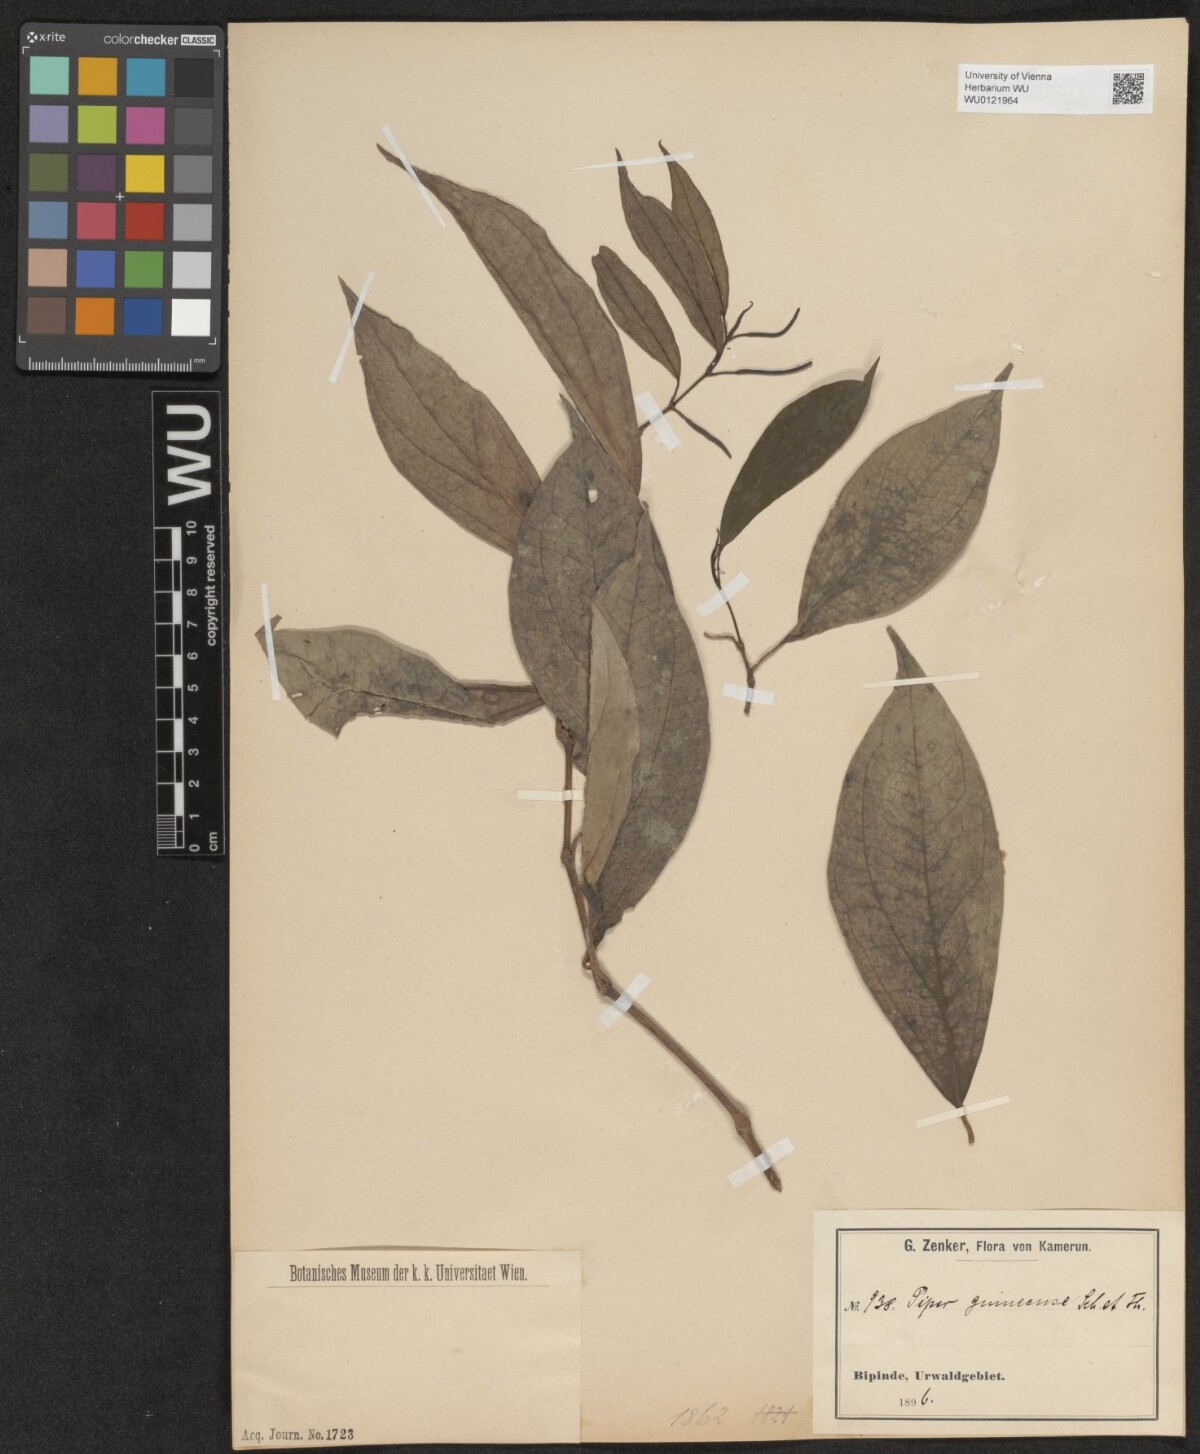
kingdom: Plantae
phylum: Tracheophyta
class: Magnoliopsida
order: Piperales
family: Piperaceae
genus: Piper
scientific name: Piper guineense
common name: Benin pepper
